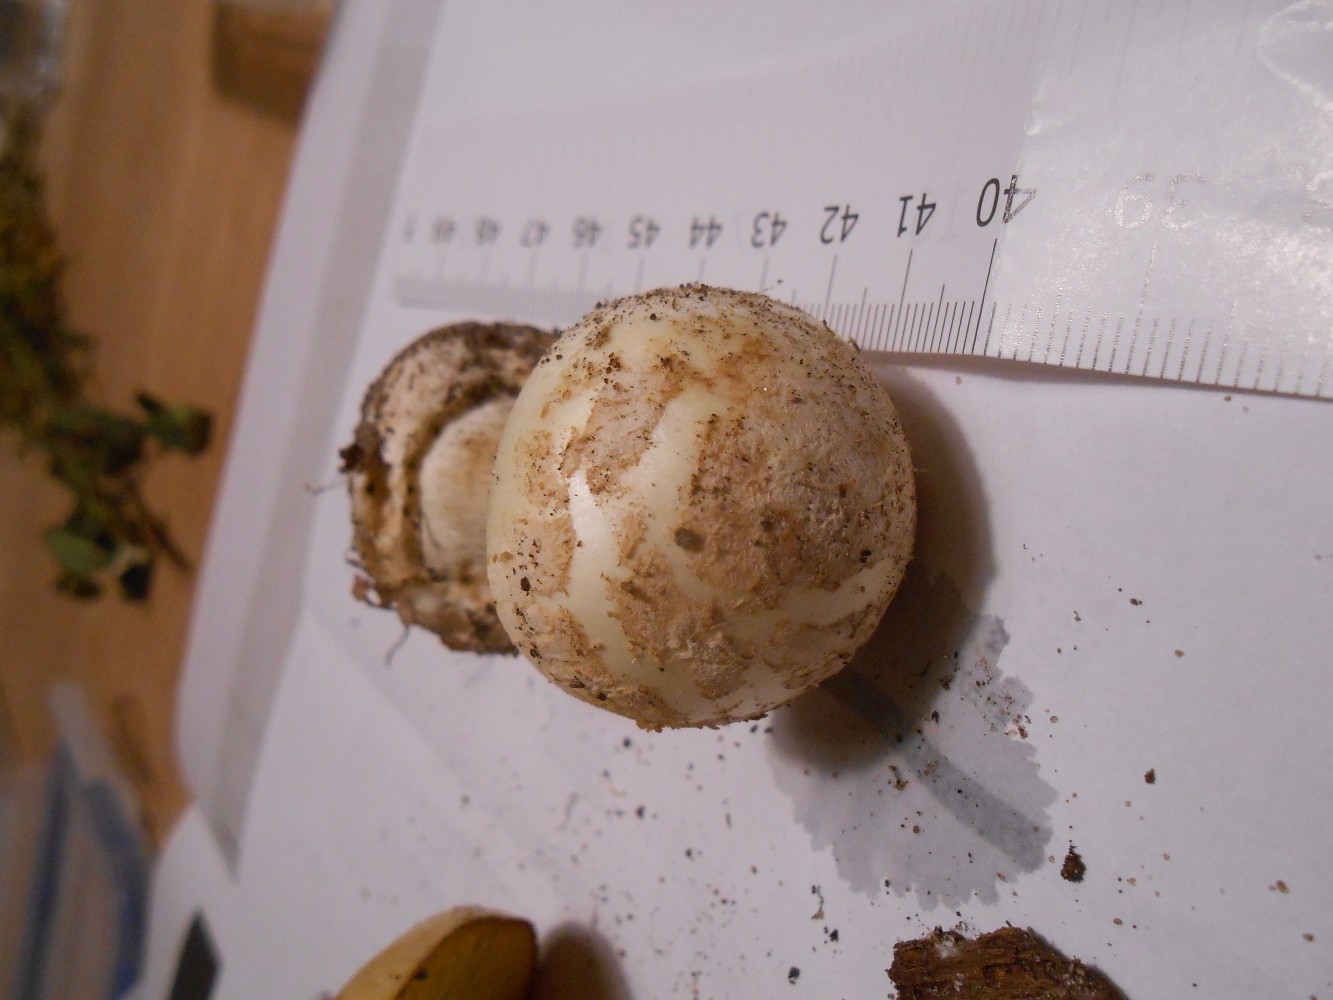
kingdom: Fungi
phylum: Basidiomycota
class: Agaricomycetes
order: Agaricales
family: Amanitaceae
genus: Amanita
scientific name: Amanita citrina
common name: kugleknoldet fluesvamp
